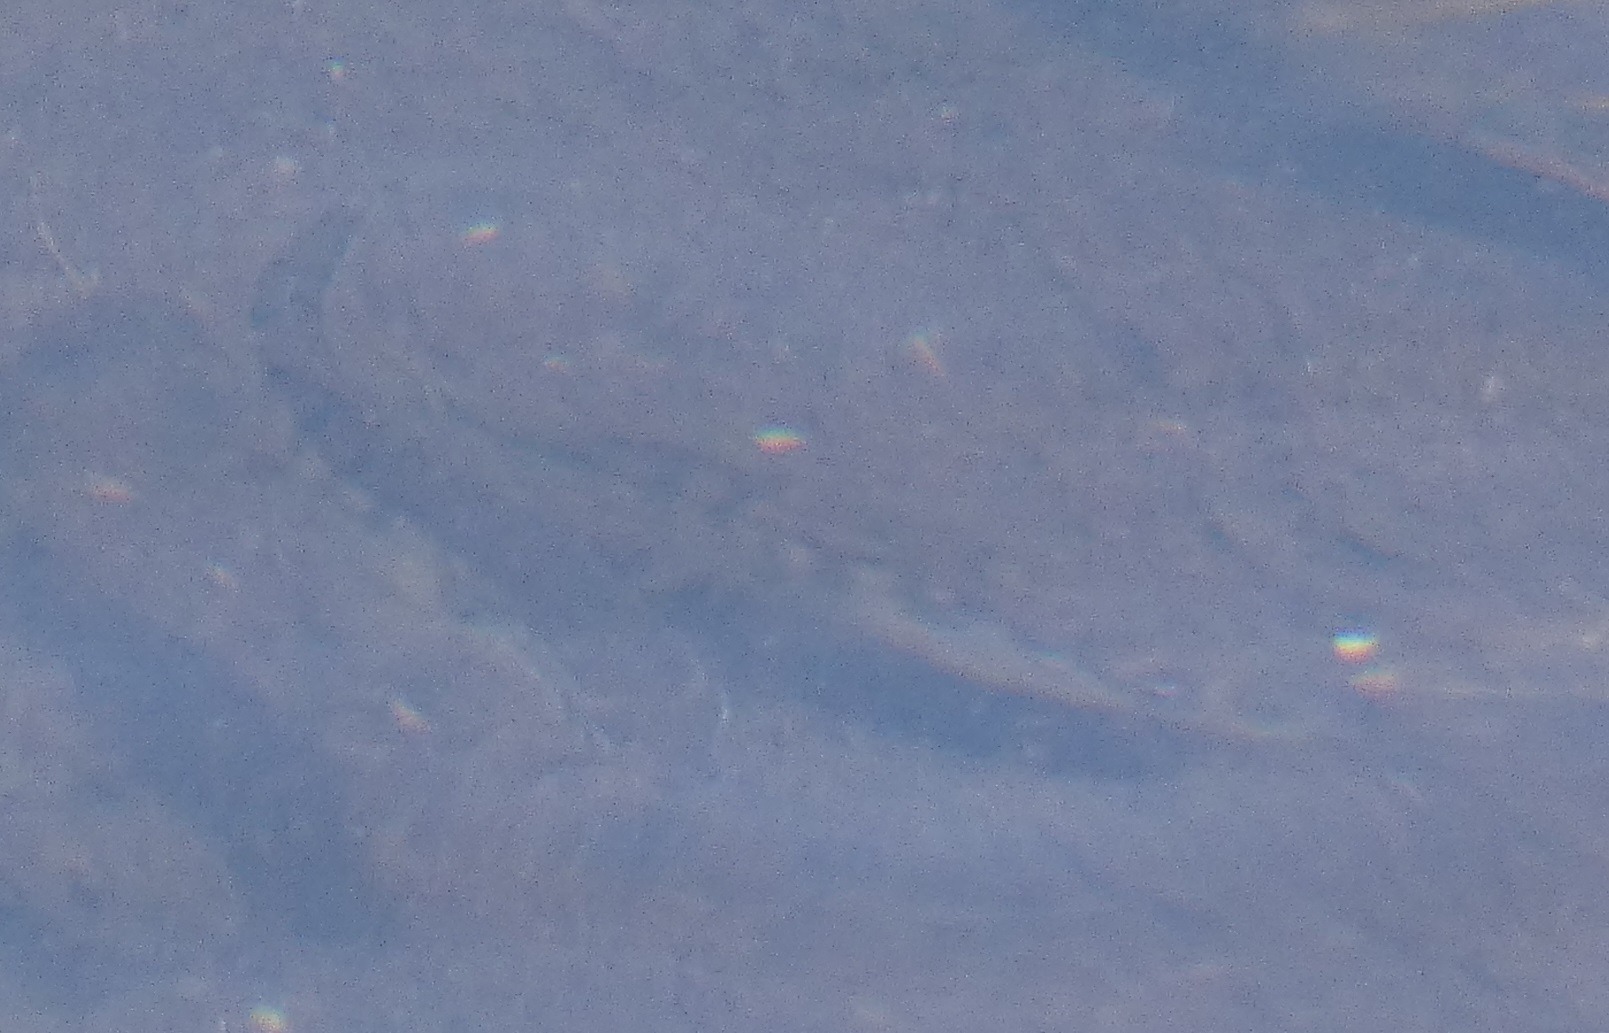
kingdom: Animalia
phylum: Chordata
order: Gasterosteiformes
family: Gasterosteidae
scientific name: Gasterosteidae
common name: Hundestejlefamilien
